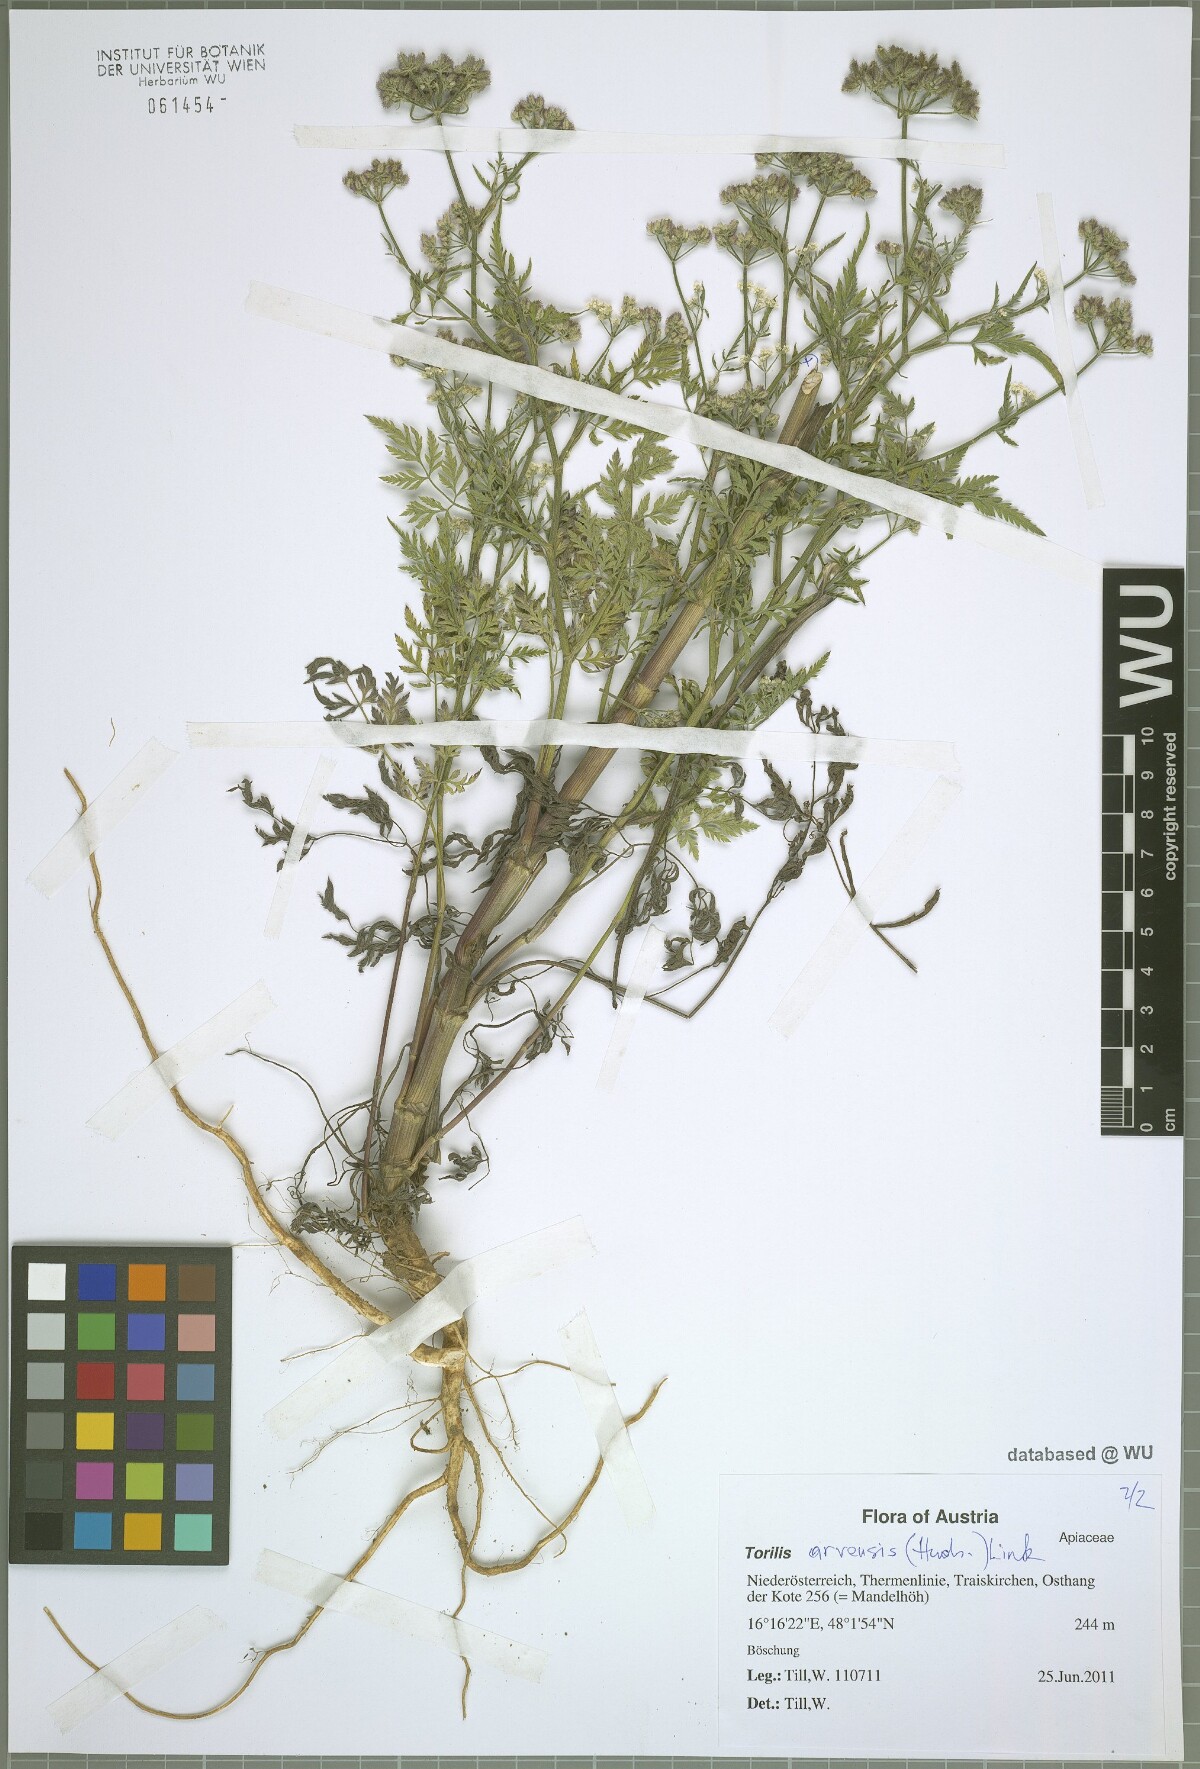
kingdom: Plantae
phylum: Tracheophyta
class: Magnoliopsida
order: Apiales
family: Apiaceae
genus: Torilis
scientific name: Torilis arvensis
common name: Spreading hedge-parsley
